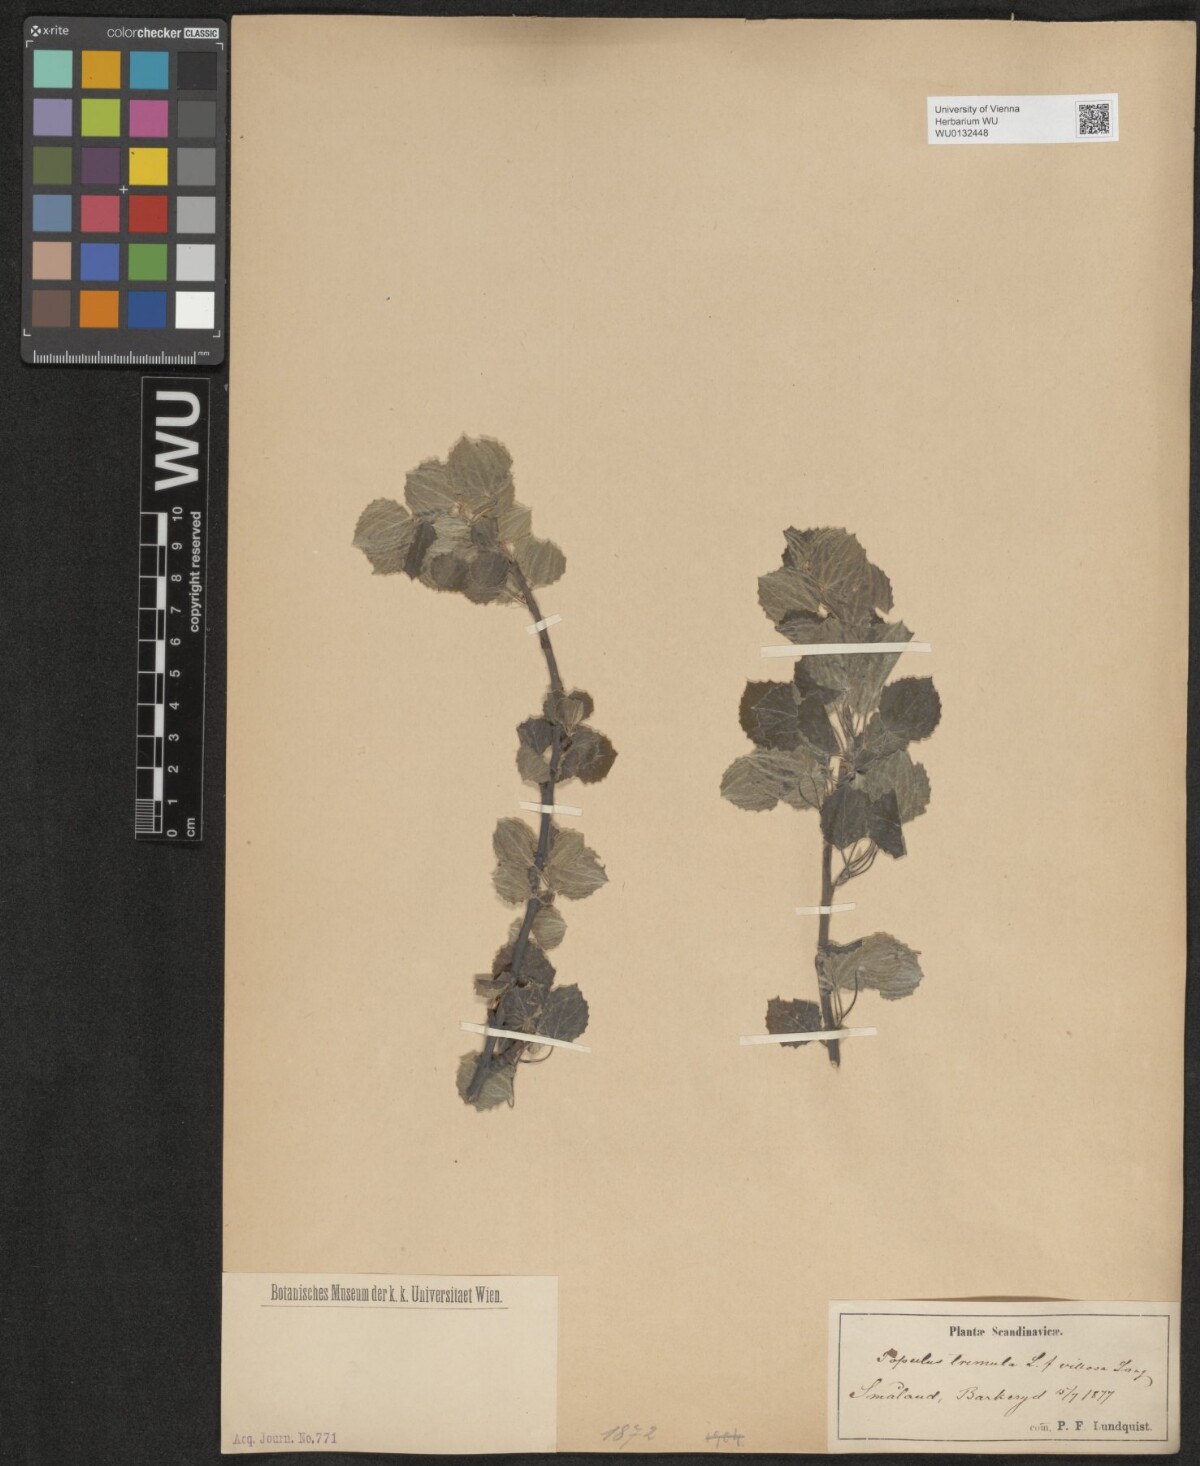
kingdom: Plantae
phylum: Tracheophyta
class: Magnoliopsida
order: Malpighiales
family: Salicaceae
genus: Populus
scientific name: Populus tremula
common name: European aspen
